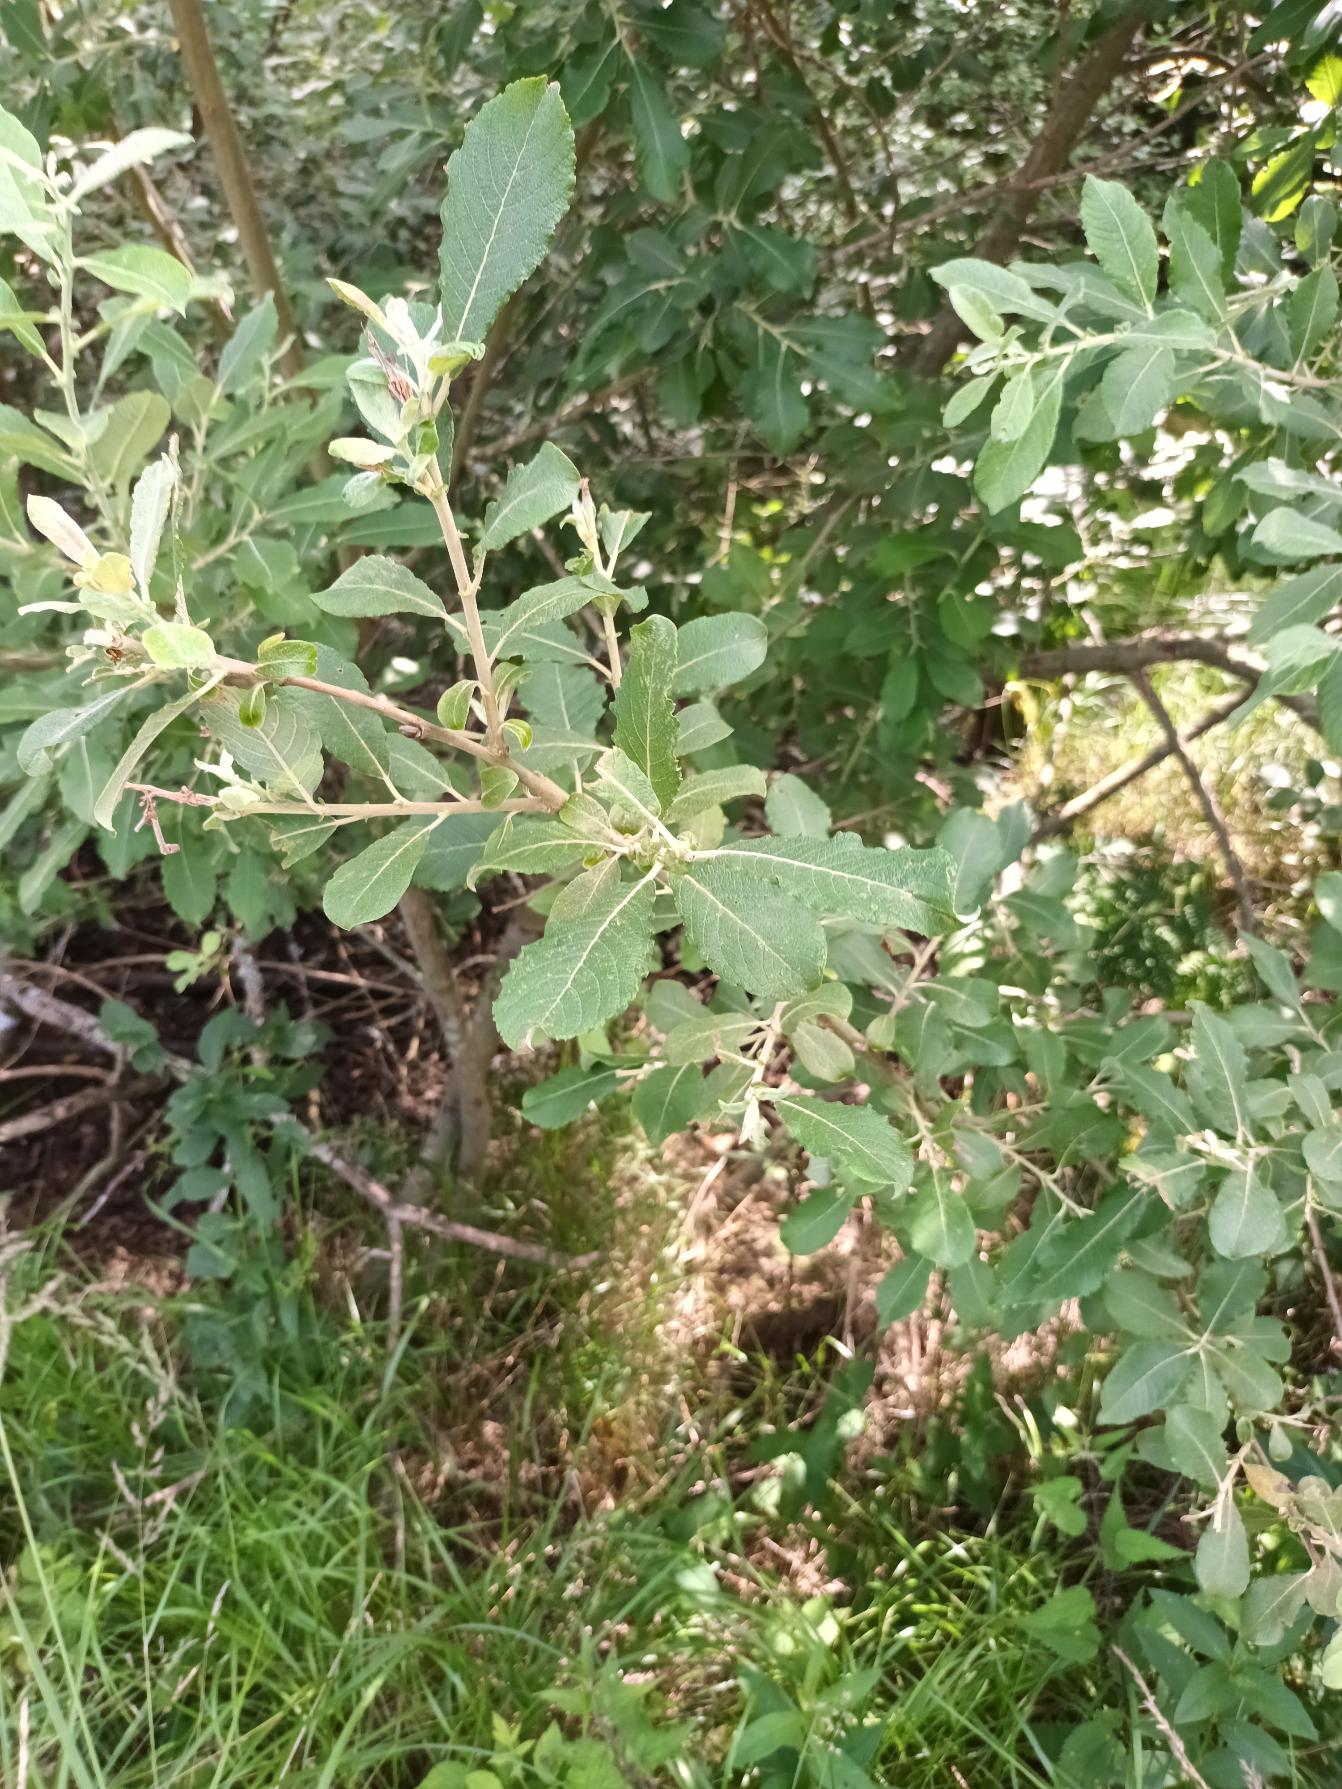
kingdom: Plantae
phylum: Tracheophyta
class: Magnoliopsida
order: Malpighiales
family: Salicaceae
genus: Salix
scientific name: Salix cinerea
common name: Grå-pil
